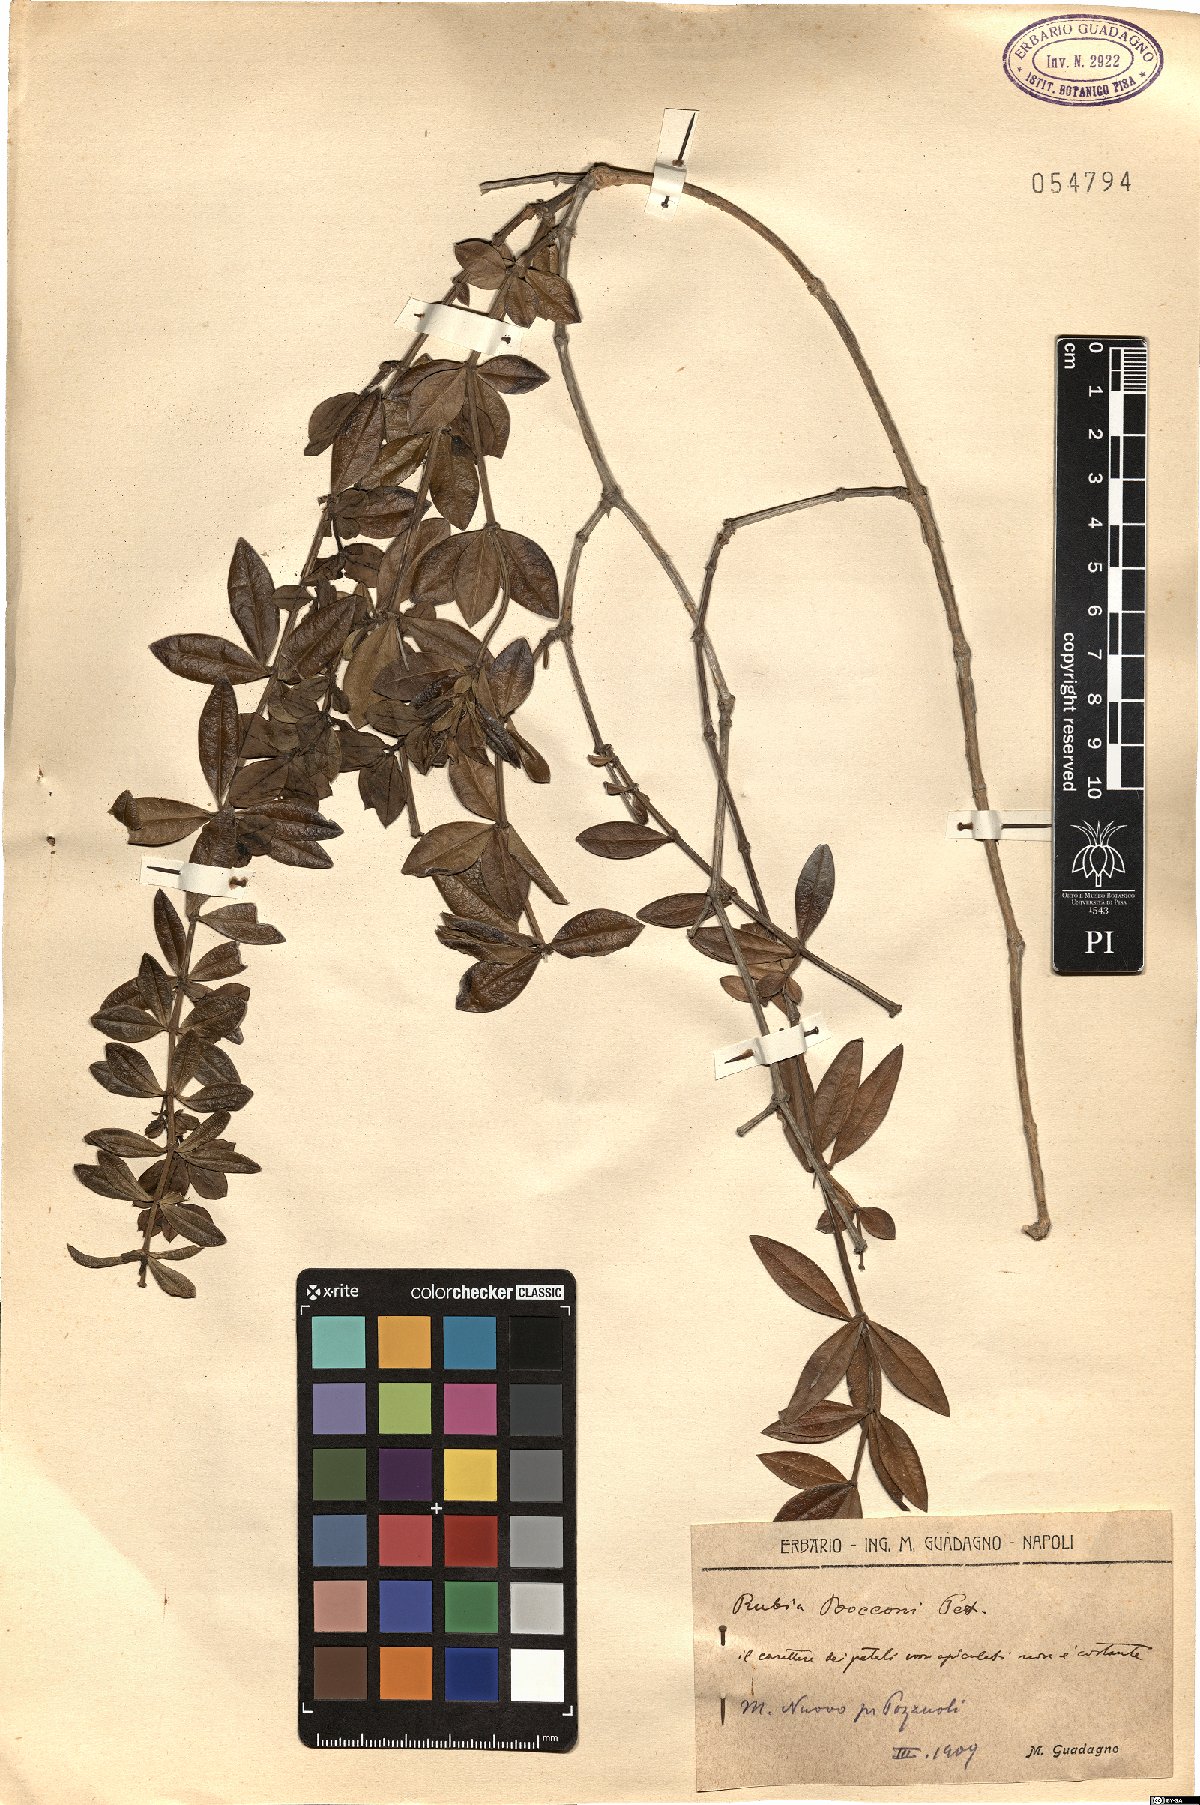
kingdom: Plantae
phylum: Tracheophyta
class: Magnoliopsida
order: Gentianales
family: Rubiaceae
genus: Rubia
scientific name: Rubia
